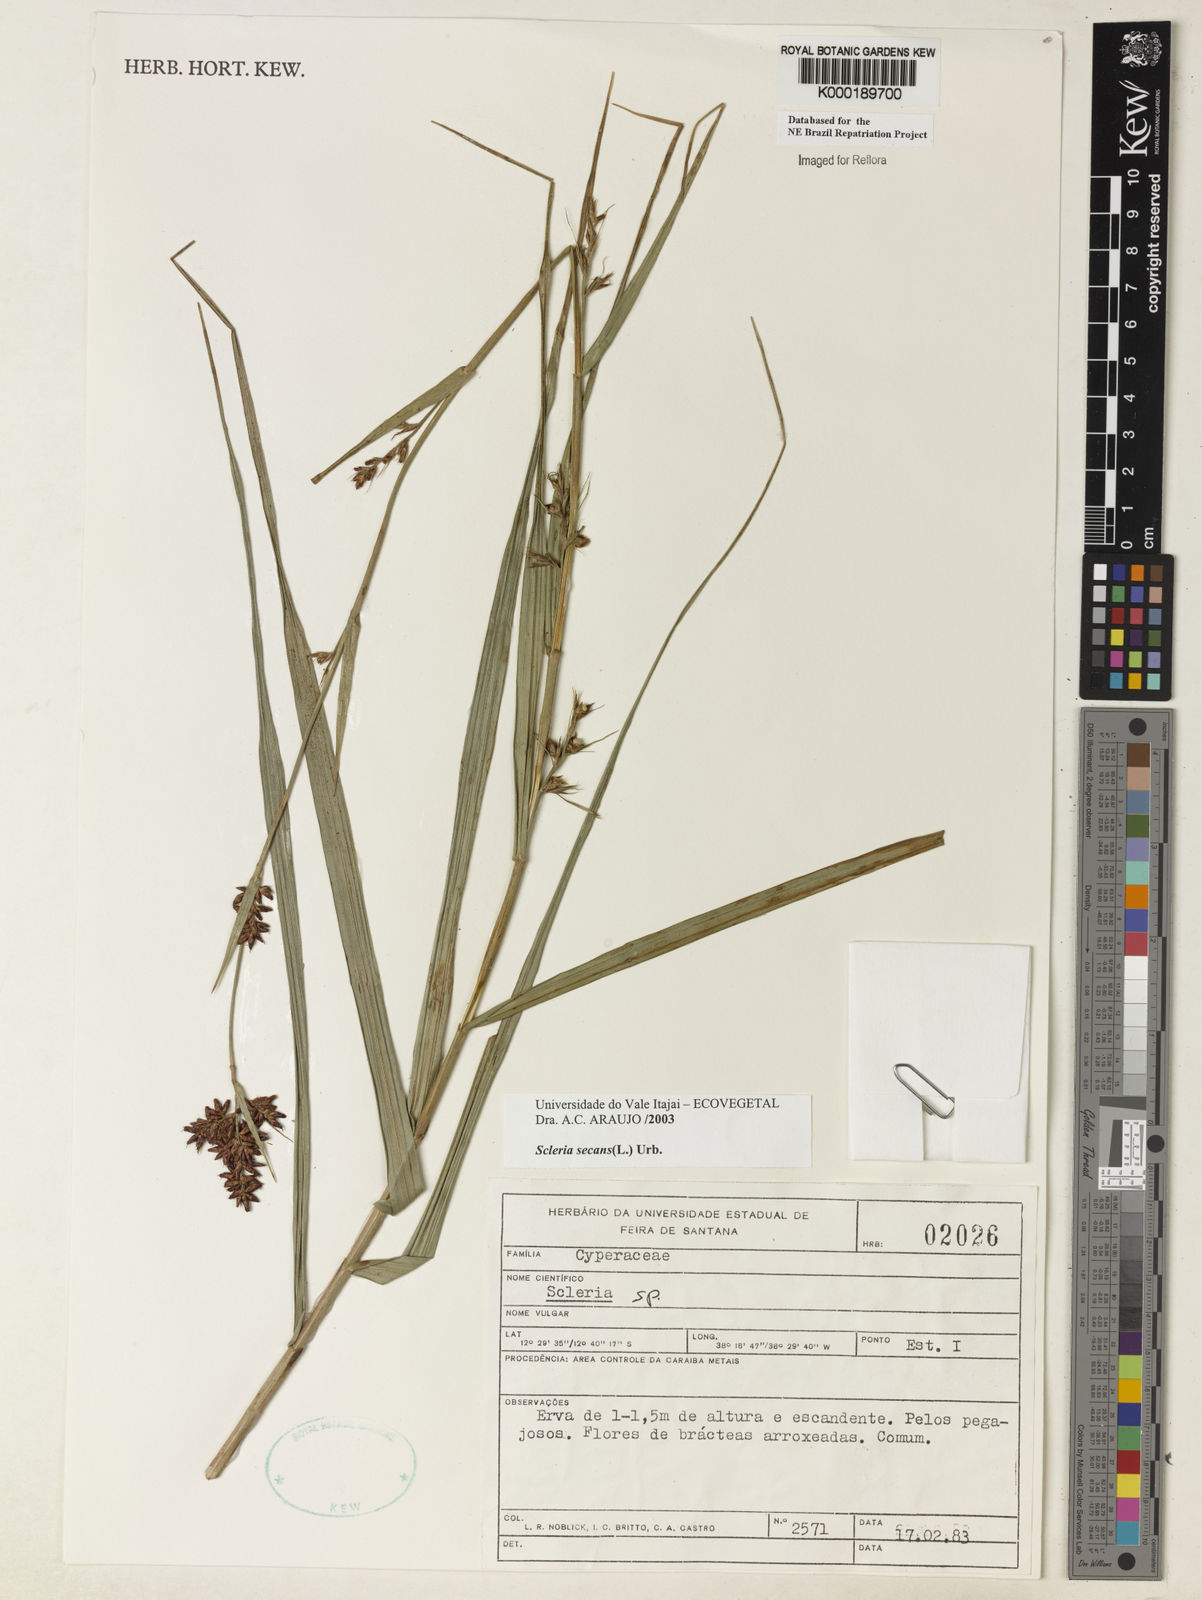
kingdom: Plantae
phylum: Tracheophyta
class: Liliopsida
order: Poales
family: Cyperaceae
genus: Scleria
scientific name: Scleria secans
